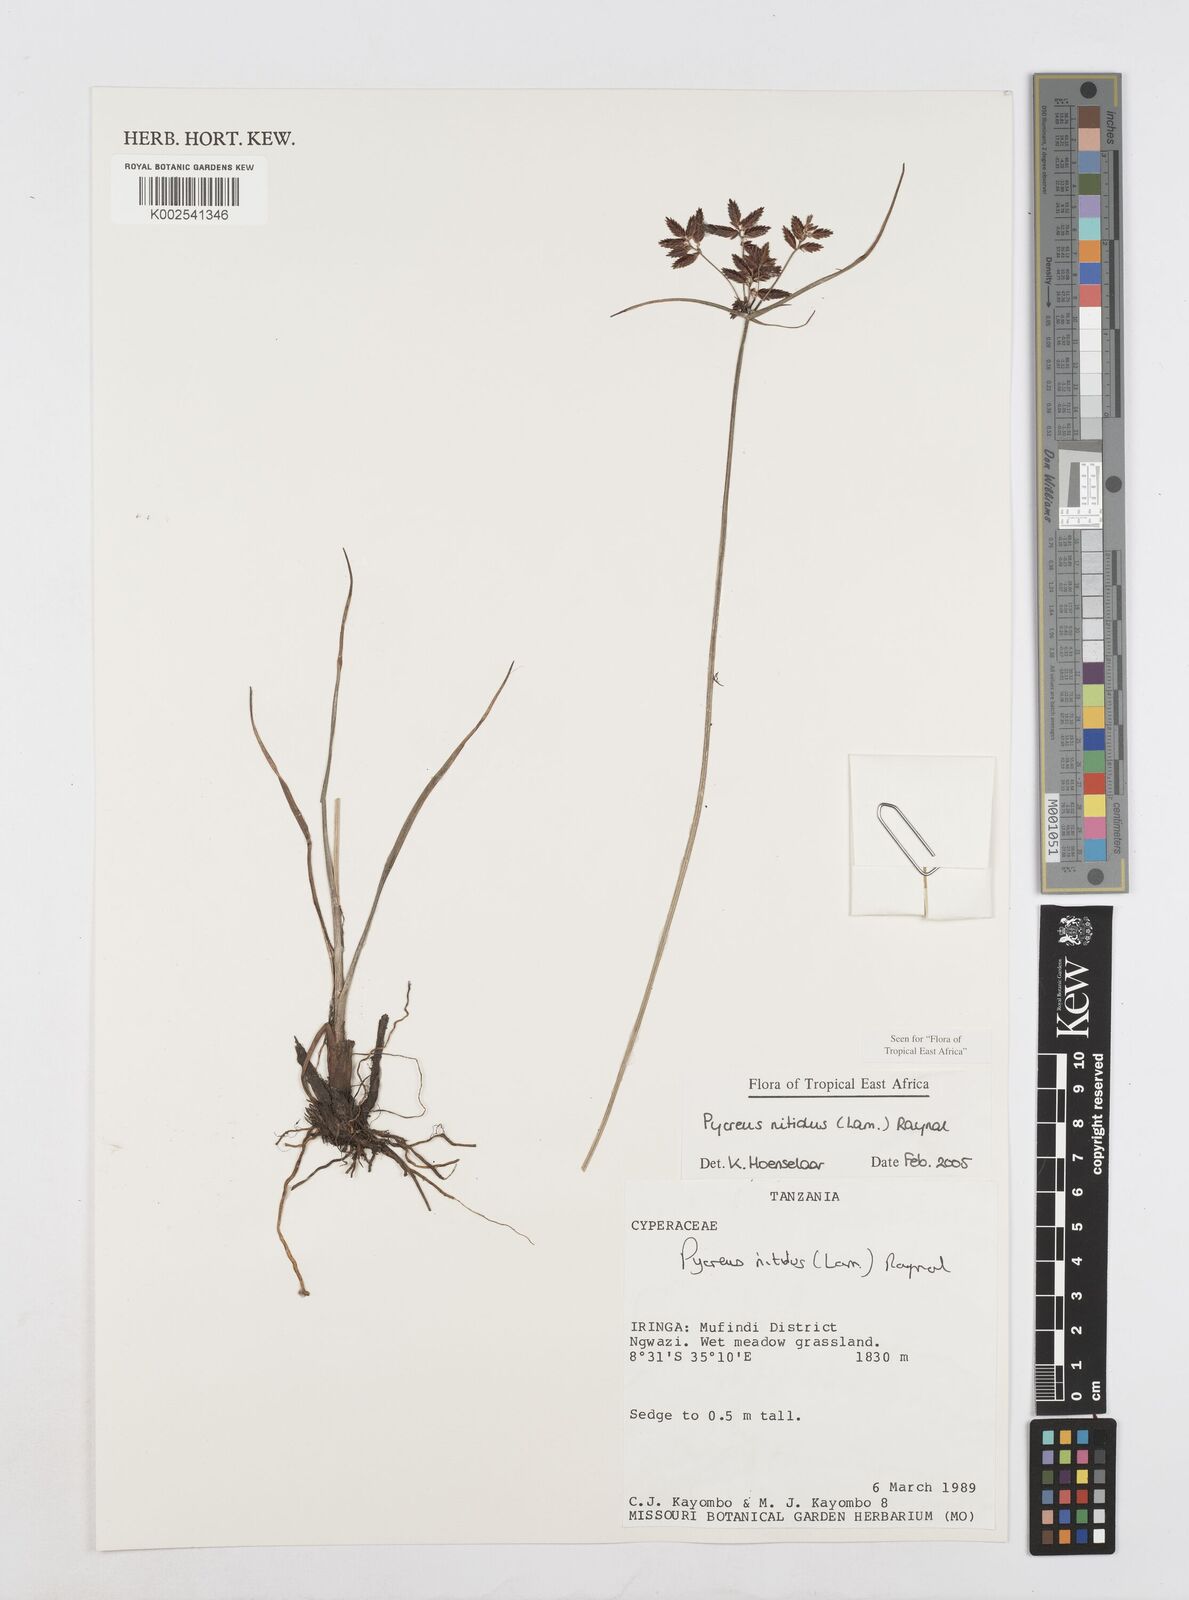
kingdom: Plantae
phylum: Tracheophyta
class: Liliopsida
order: Poales
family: Cyperaceae
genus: Cyperus
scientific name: Cyperus nitidus
